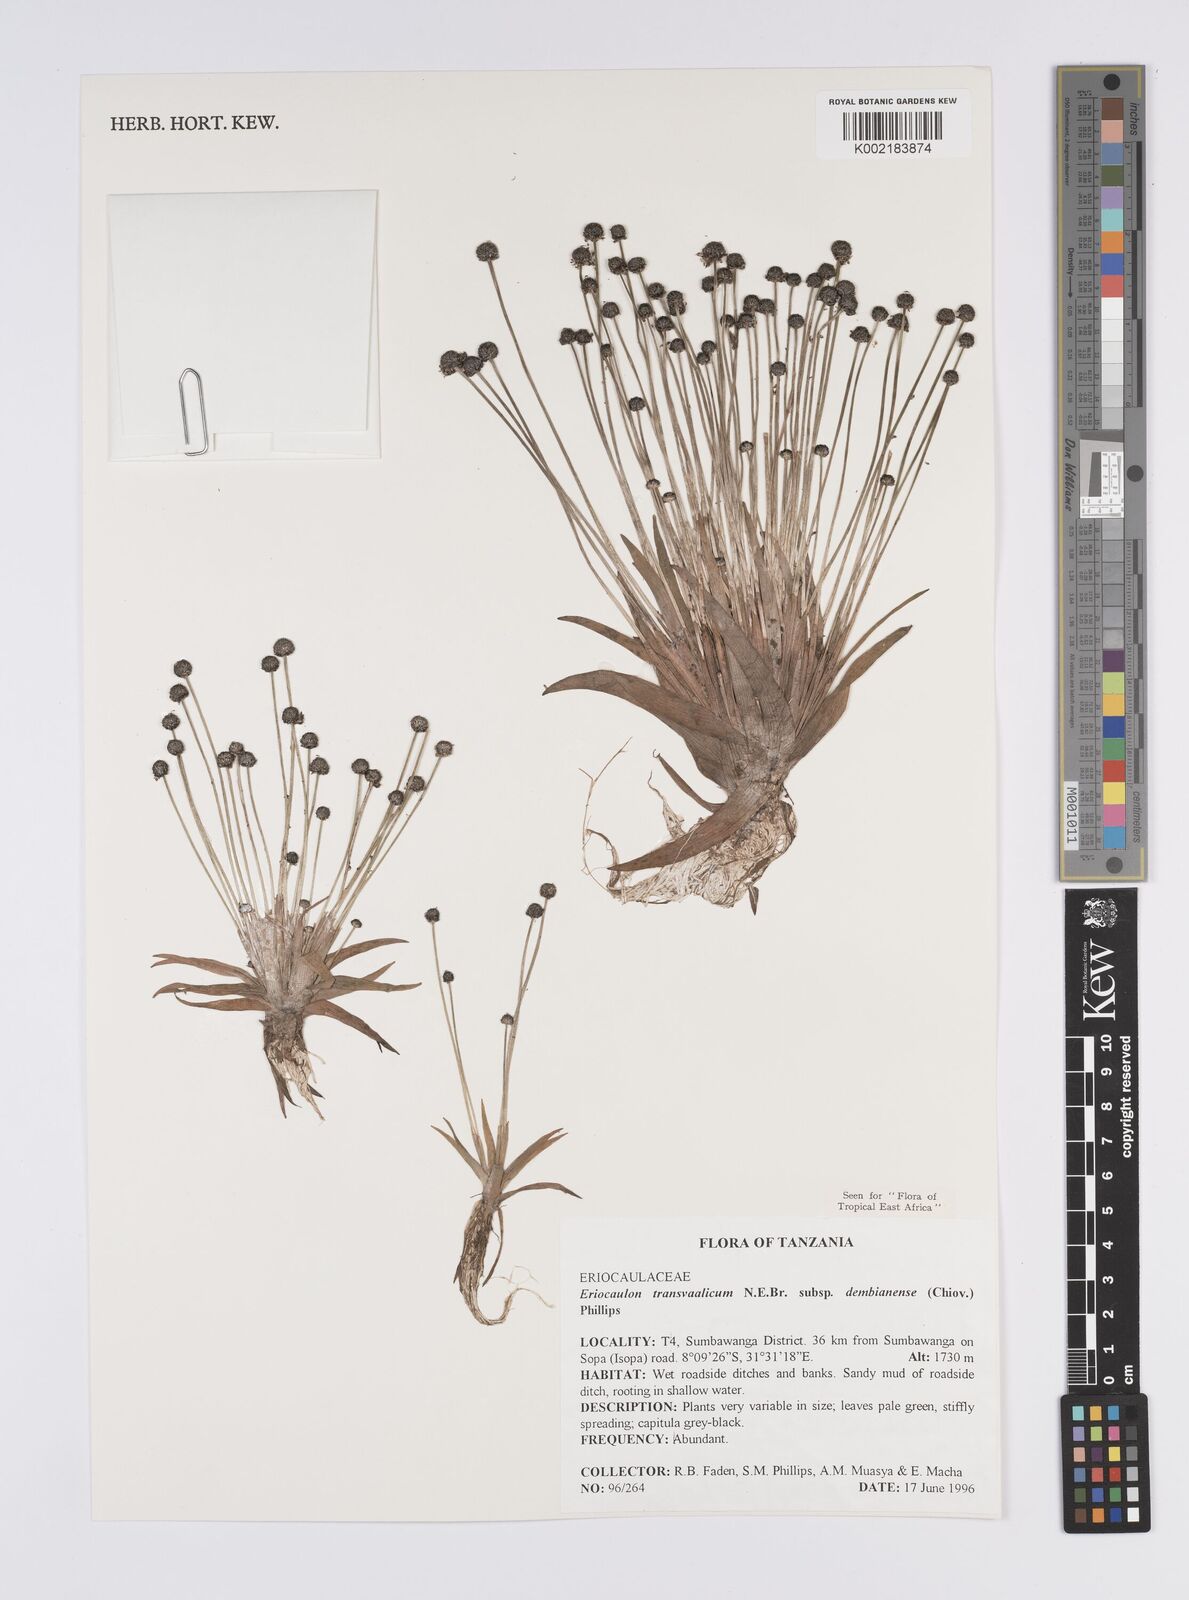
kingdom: Plantae
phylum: Tracheophyta
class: Liliopsida
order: Poales
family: Eriocaulaceae
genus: Eriocaulon
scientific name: Eriocaulon transvaalicum
